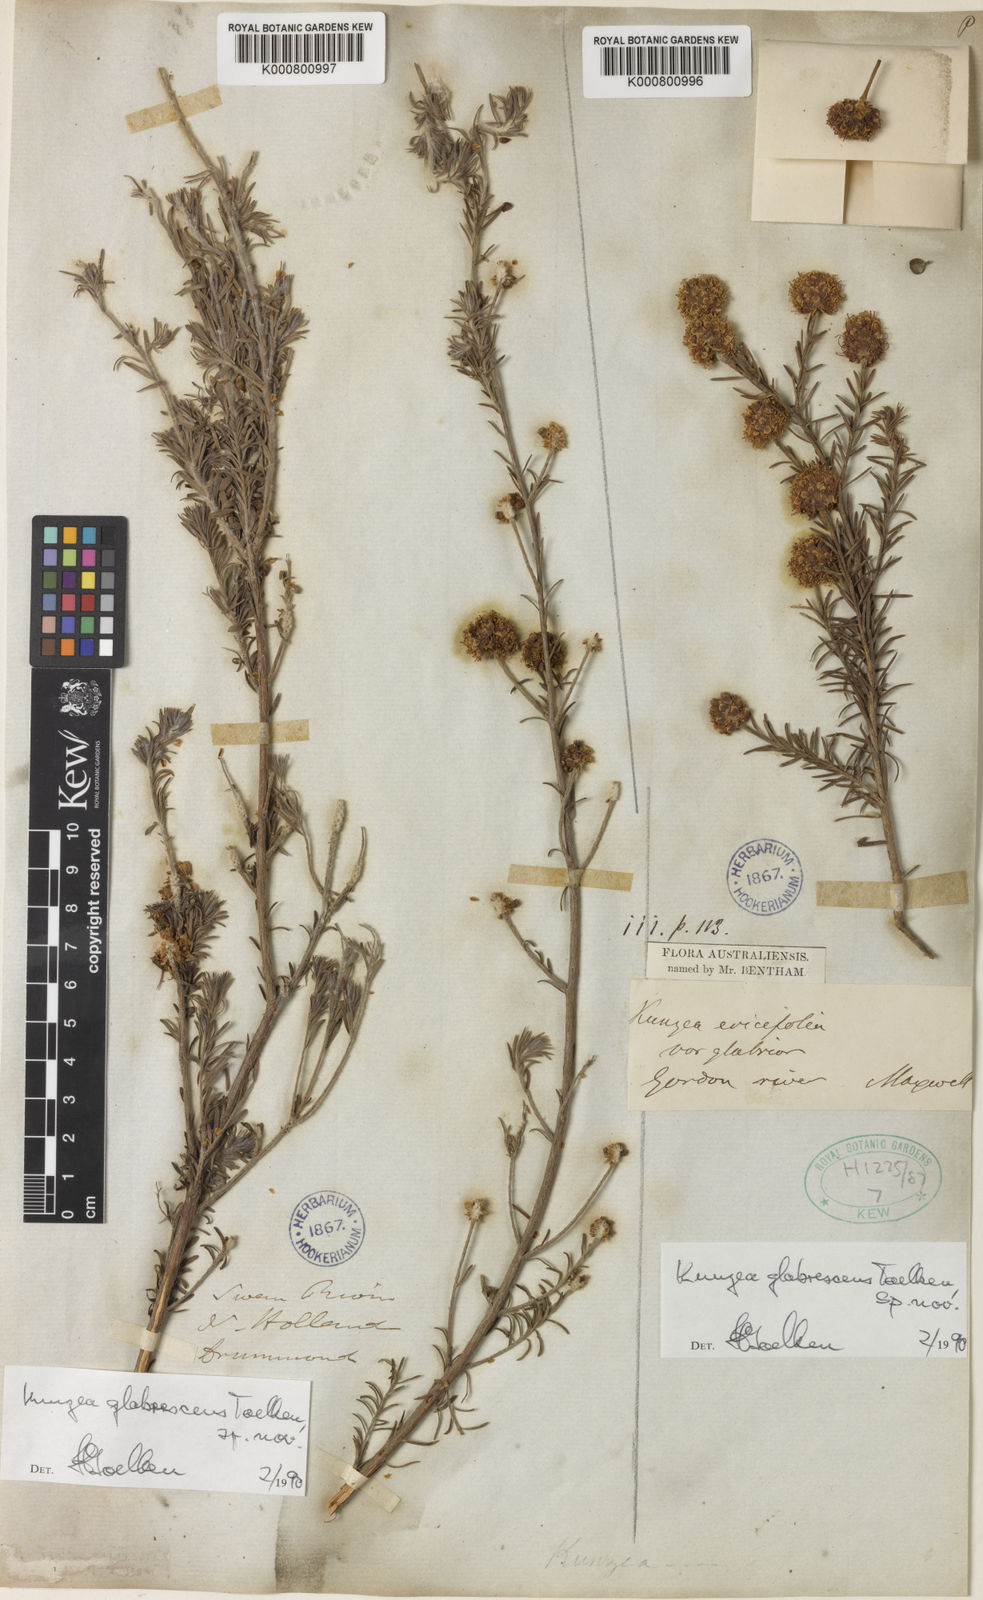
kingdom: Plantae
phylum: Tracheophyta
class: Magnoliopsida
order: Myrtales
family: Myrtaceae
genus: Kunzea
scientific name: Kunzea glabrescens
